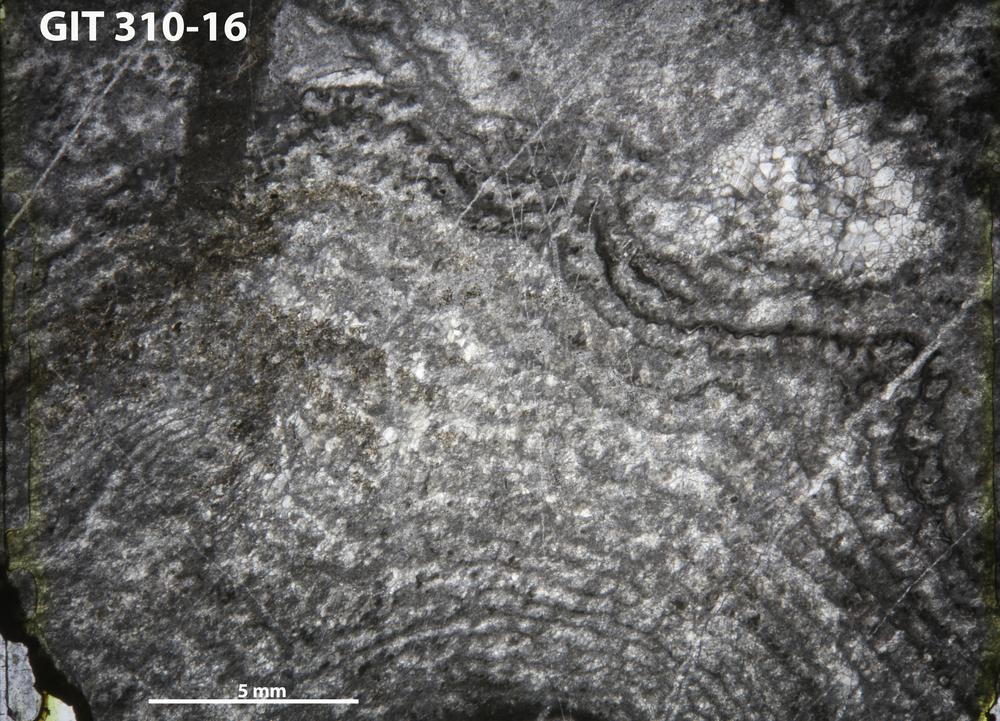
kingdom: Animalia
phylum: Porifera
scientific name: Porifera
